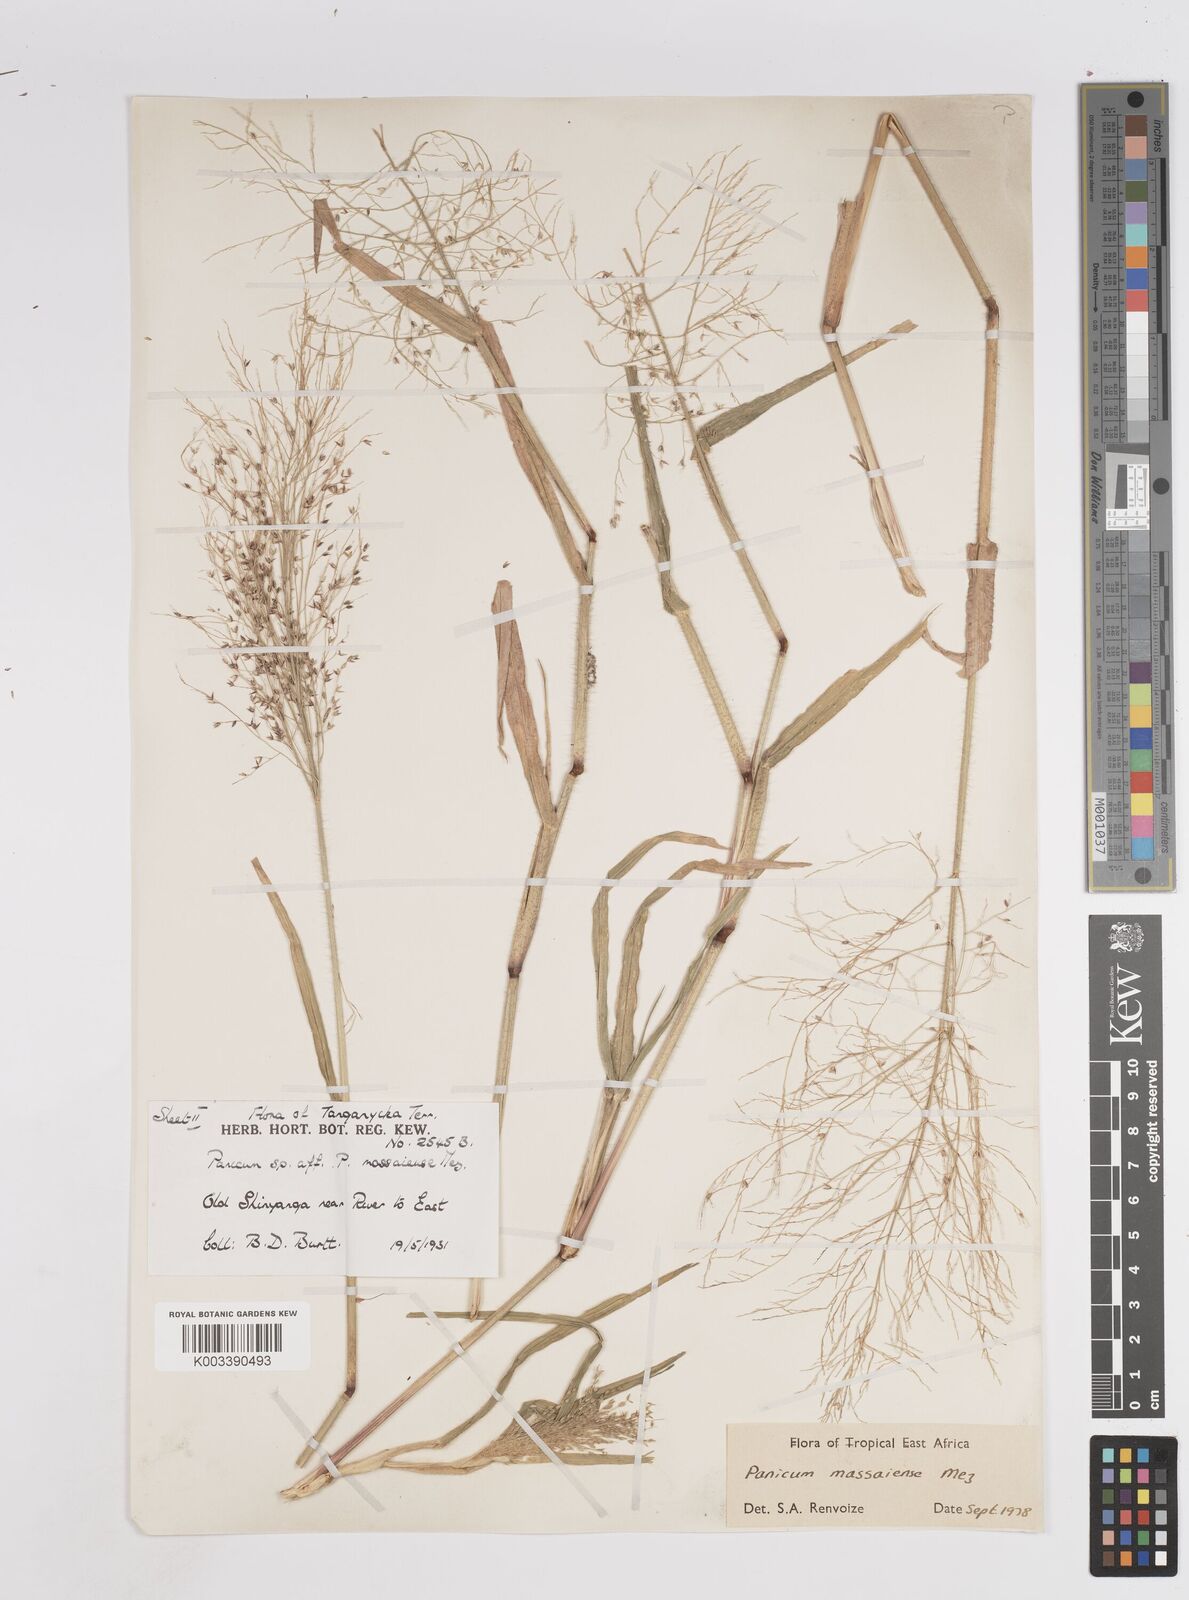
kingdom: Plantae
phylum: Tracheophyta
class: Liliopsida
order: Poales
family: Poaceae
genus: Panicum
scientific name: Panicum massaiense
